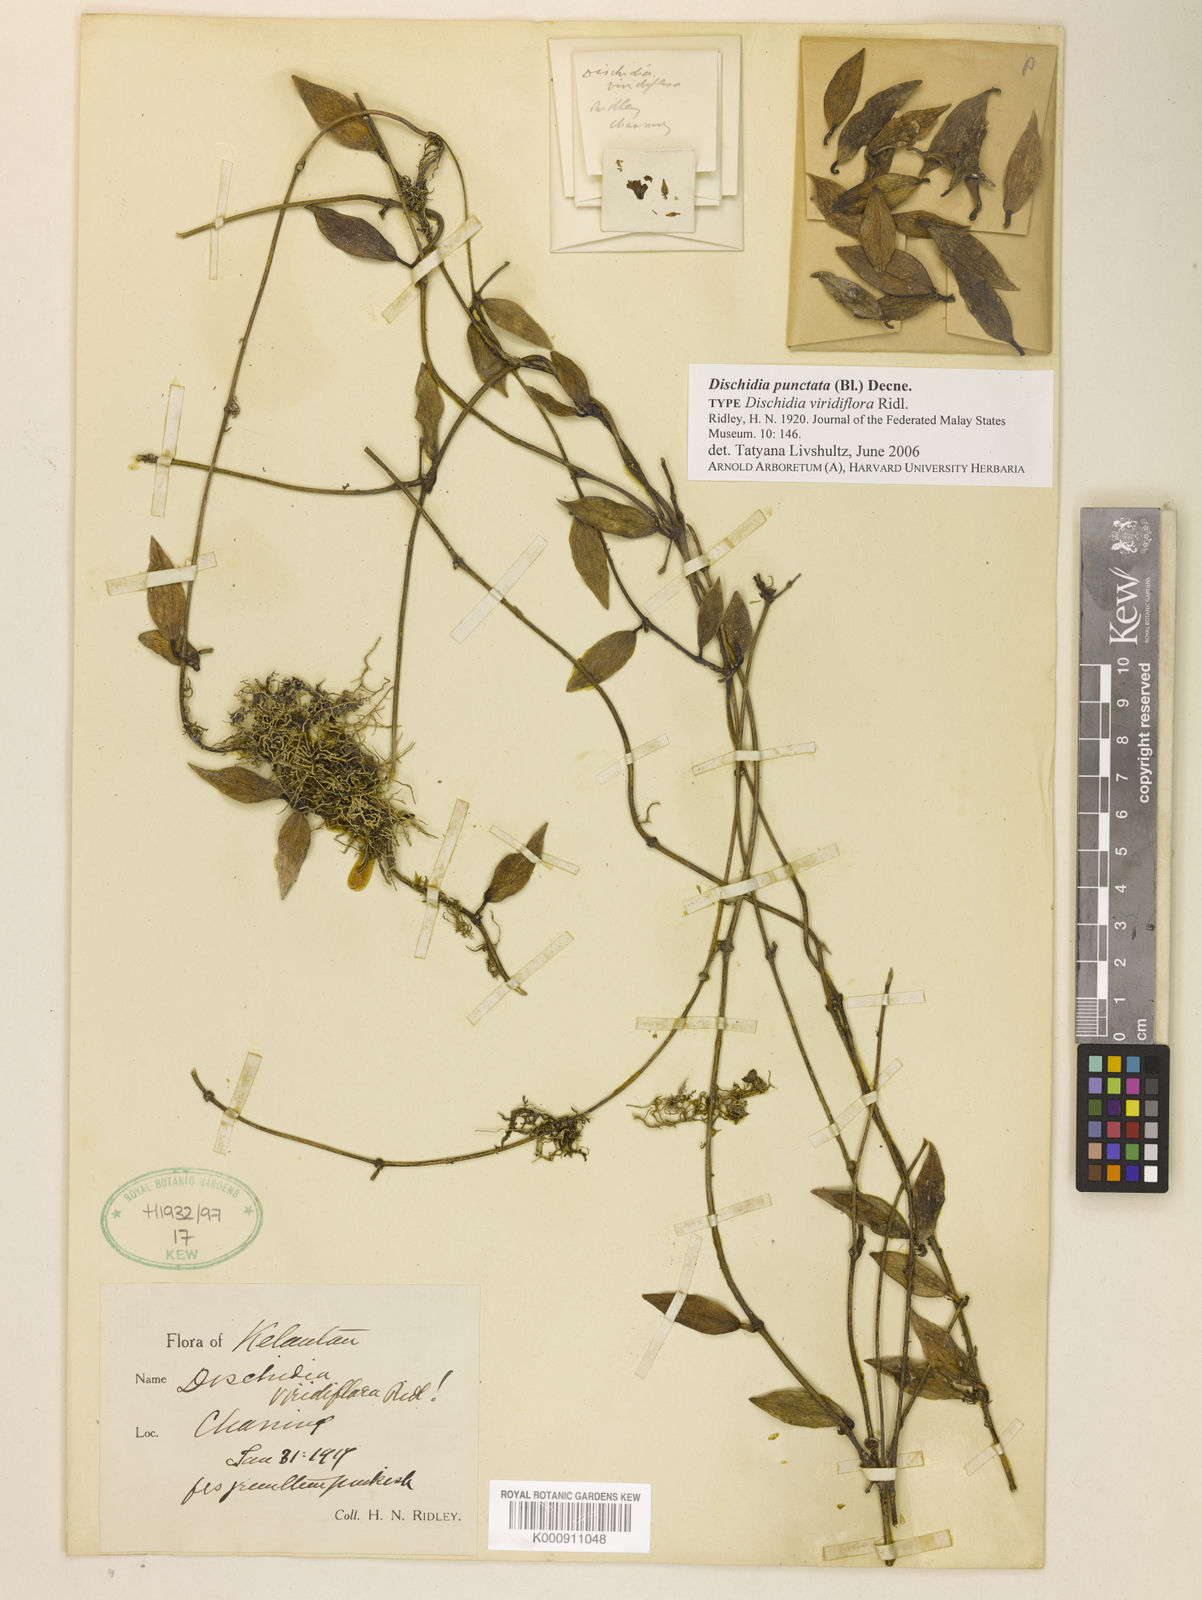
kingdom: Plantae
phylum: Tracheophyta
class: Magnoliopsida
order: Gentianales
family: Apocynaceae
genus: Dischidia
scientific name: Dischidia punctata
